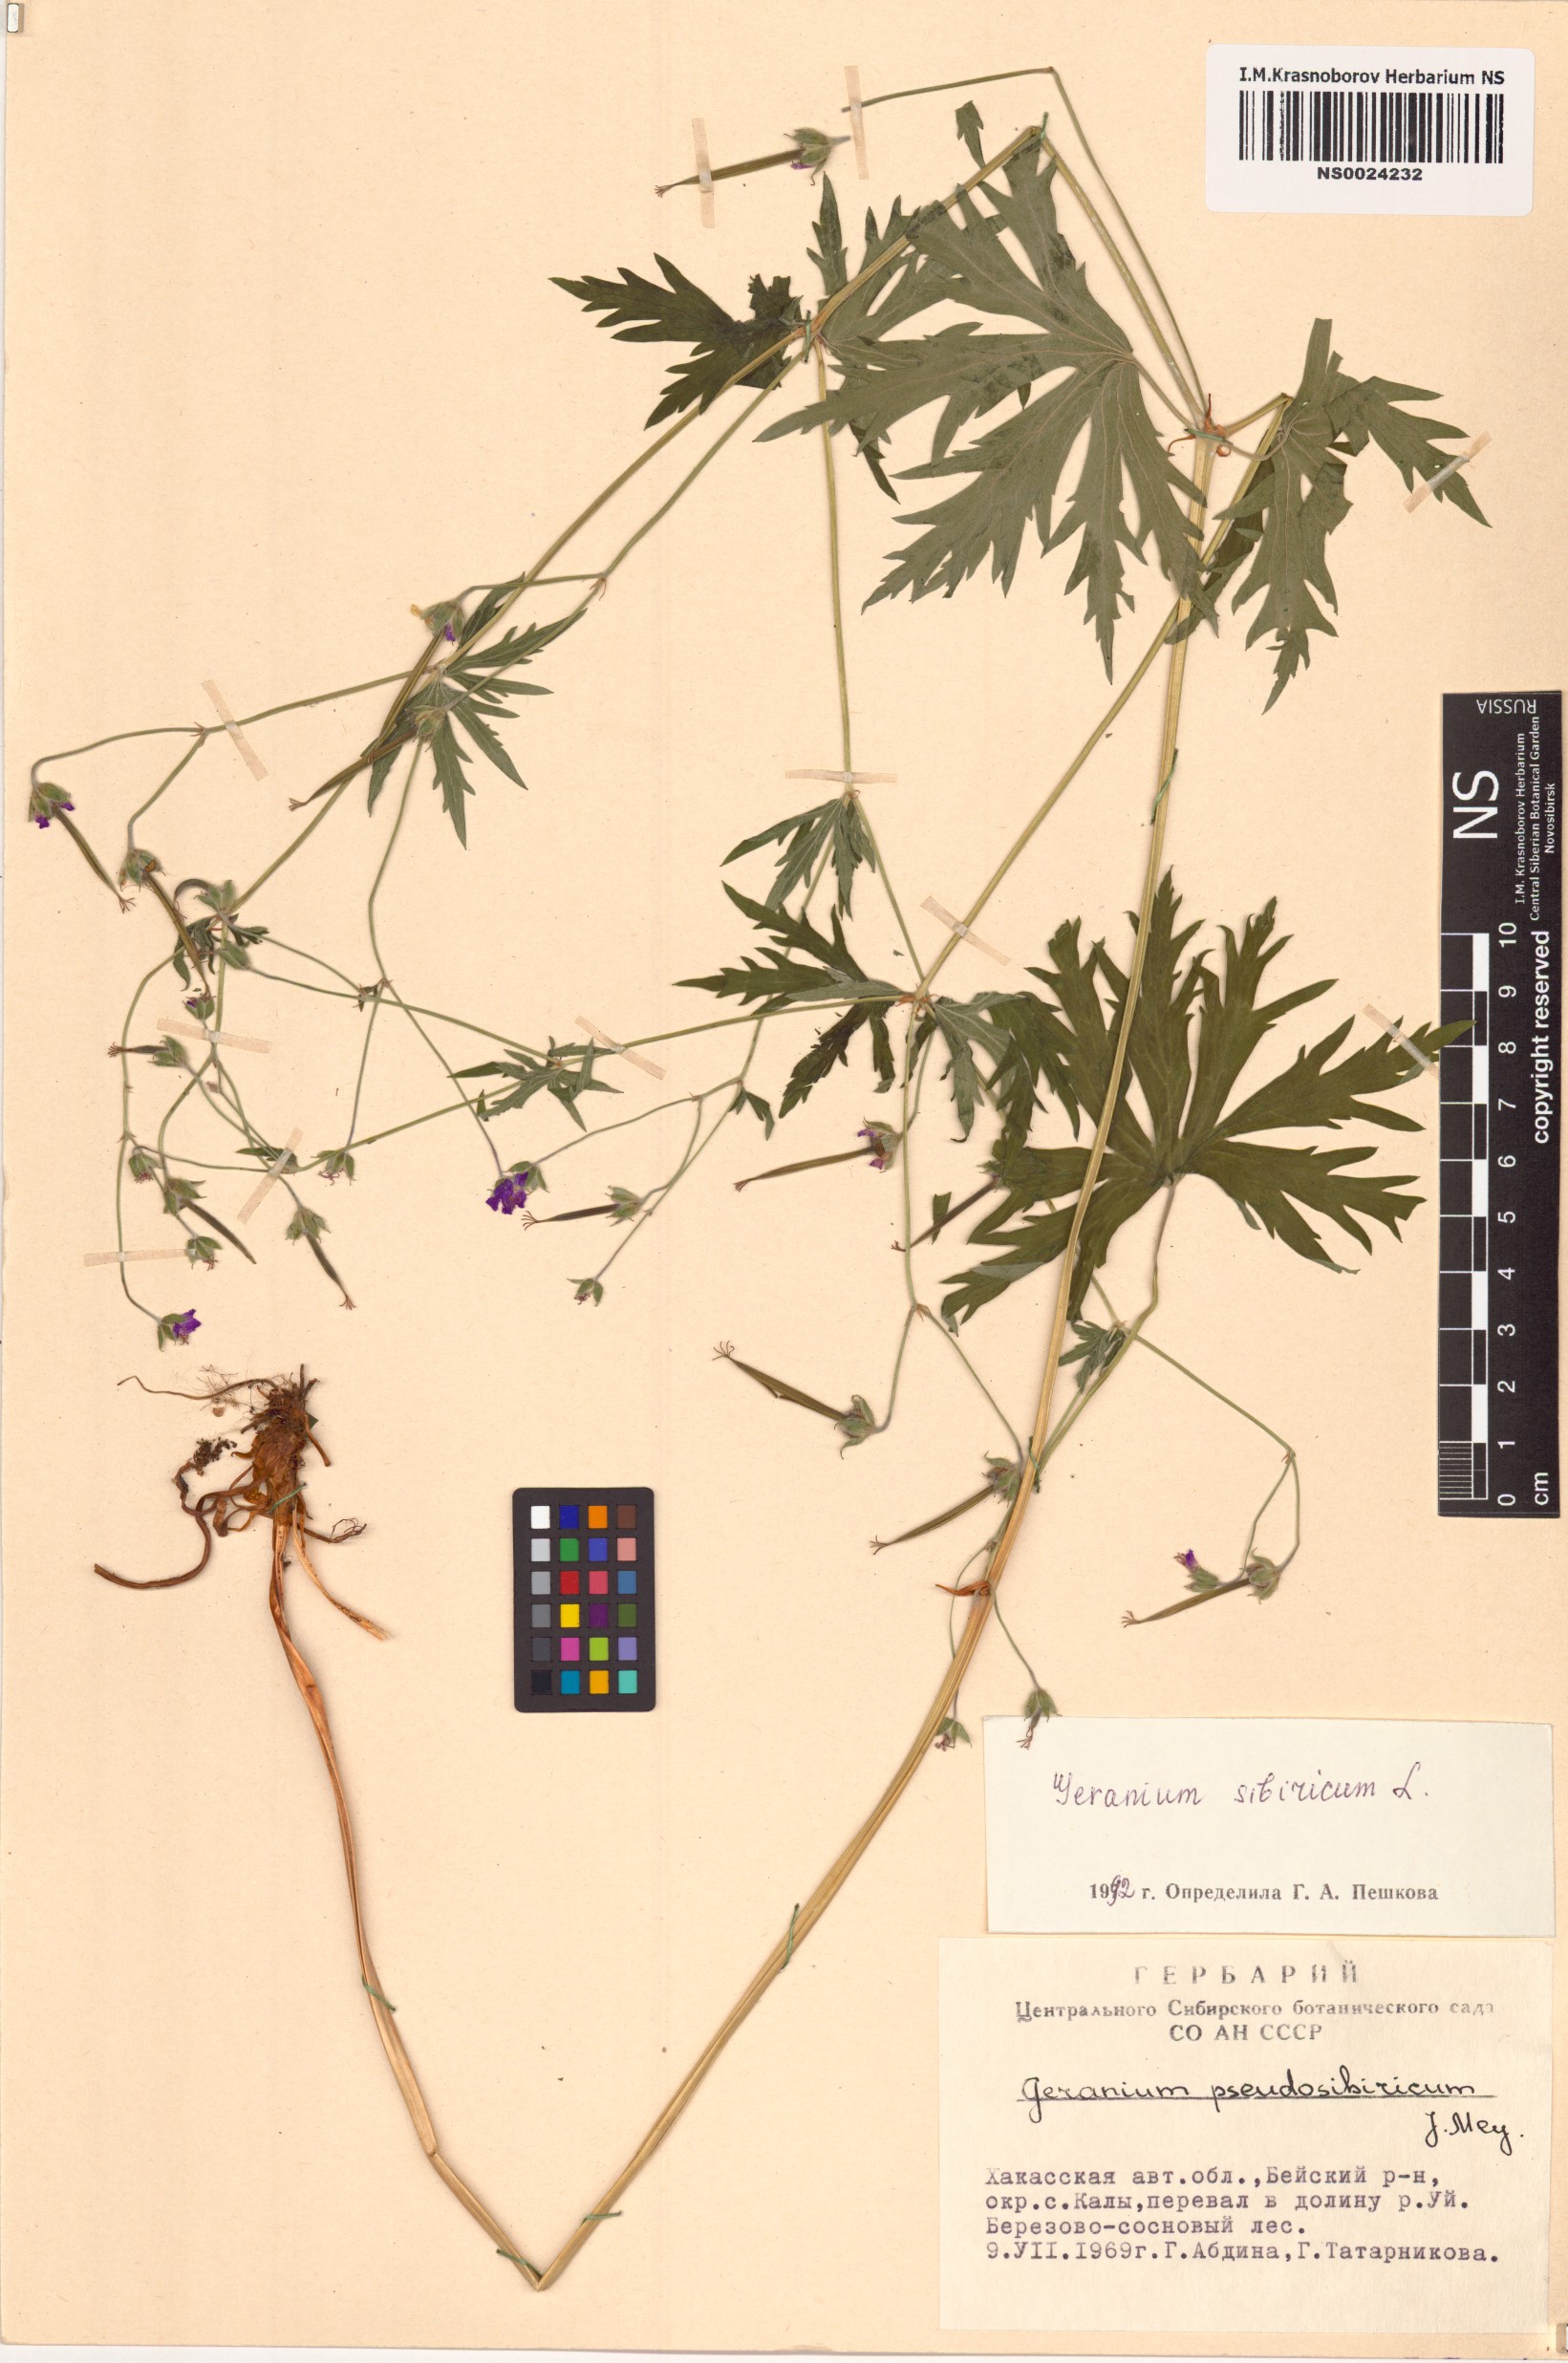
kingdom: Plantae
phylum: Tracheophyta
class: Magnoliopsida
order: Geraniales
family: Geraniaceae
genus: Geranium
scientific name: Geranium sibiricum
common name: Siberian crane's-bill
